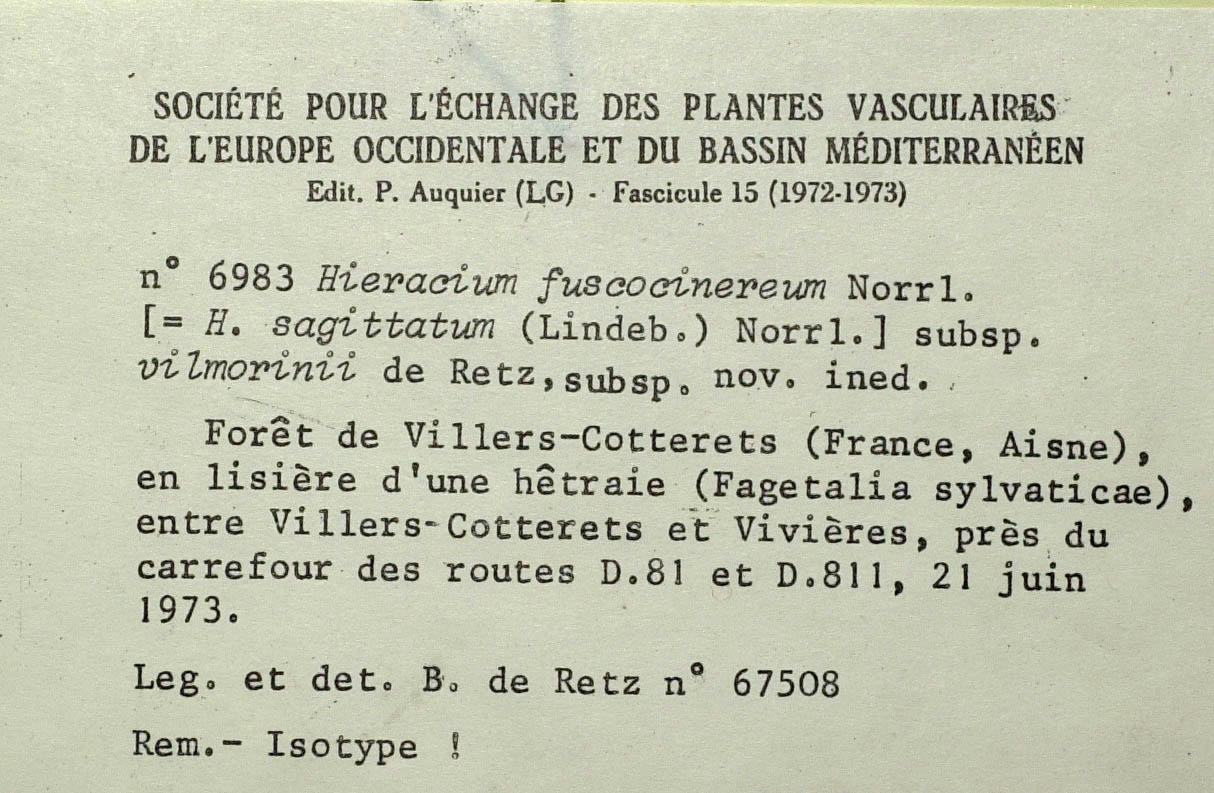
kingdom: Plantae
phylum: Tracheophyta
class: Magnoliopsida
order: Asterales
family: Asteraceae
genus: Hieracium
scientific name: Hieracium fuscocinereum
